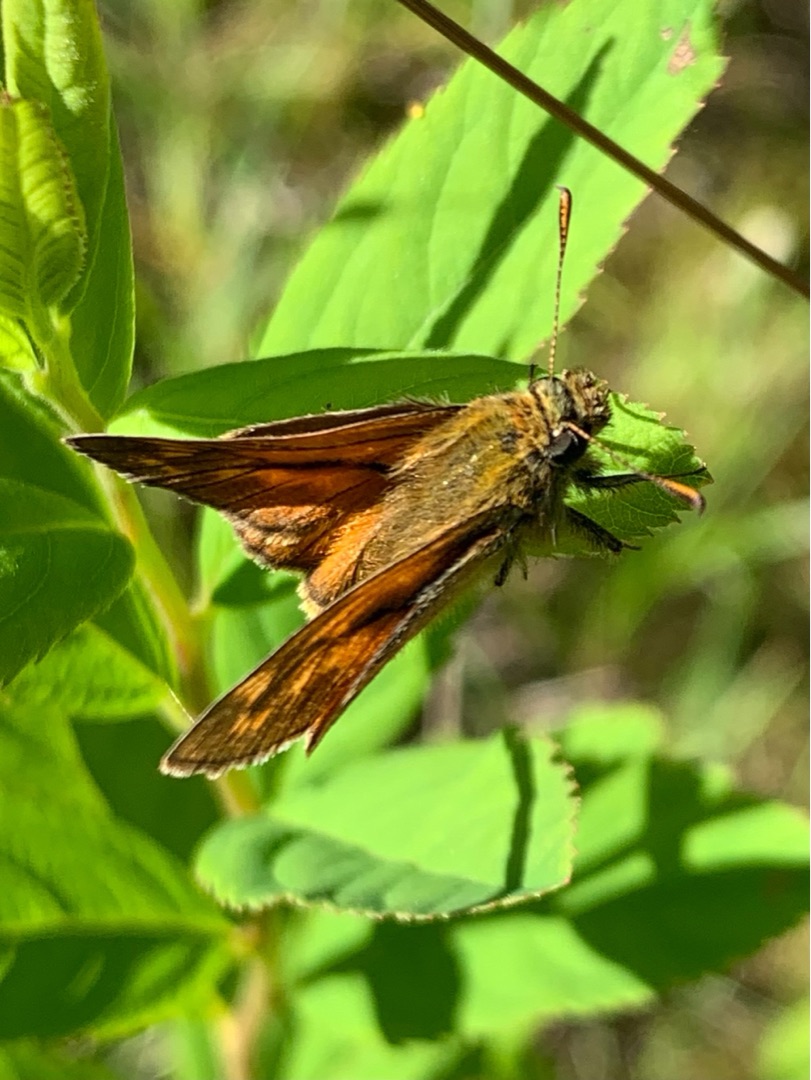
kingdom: Animalia
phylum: Arthropoda
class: Insecta
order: Lepidoptera
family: Hesperiidae
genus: Ochlodes
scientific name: Ochlodes venata
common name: Stor bredpande
